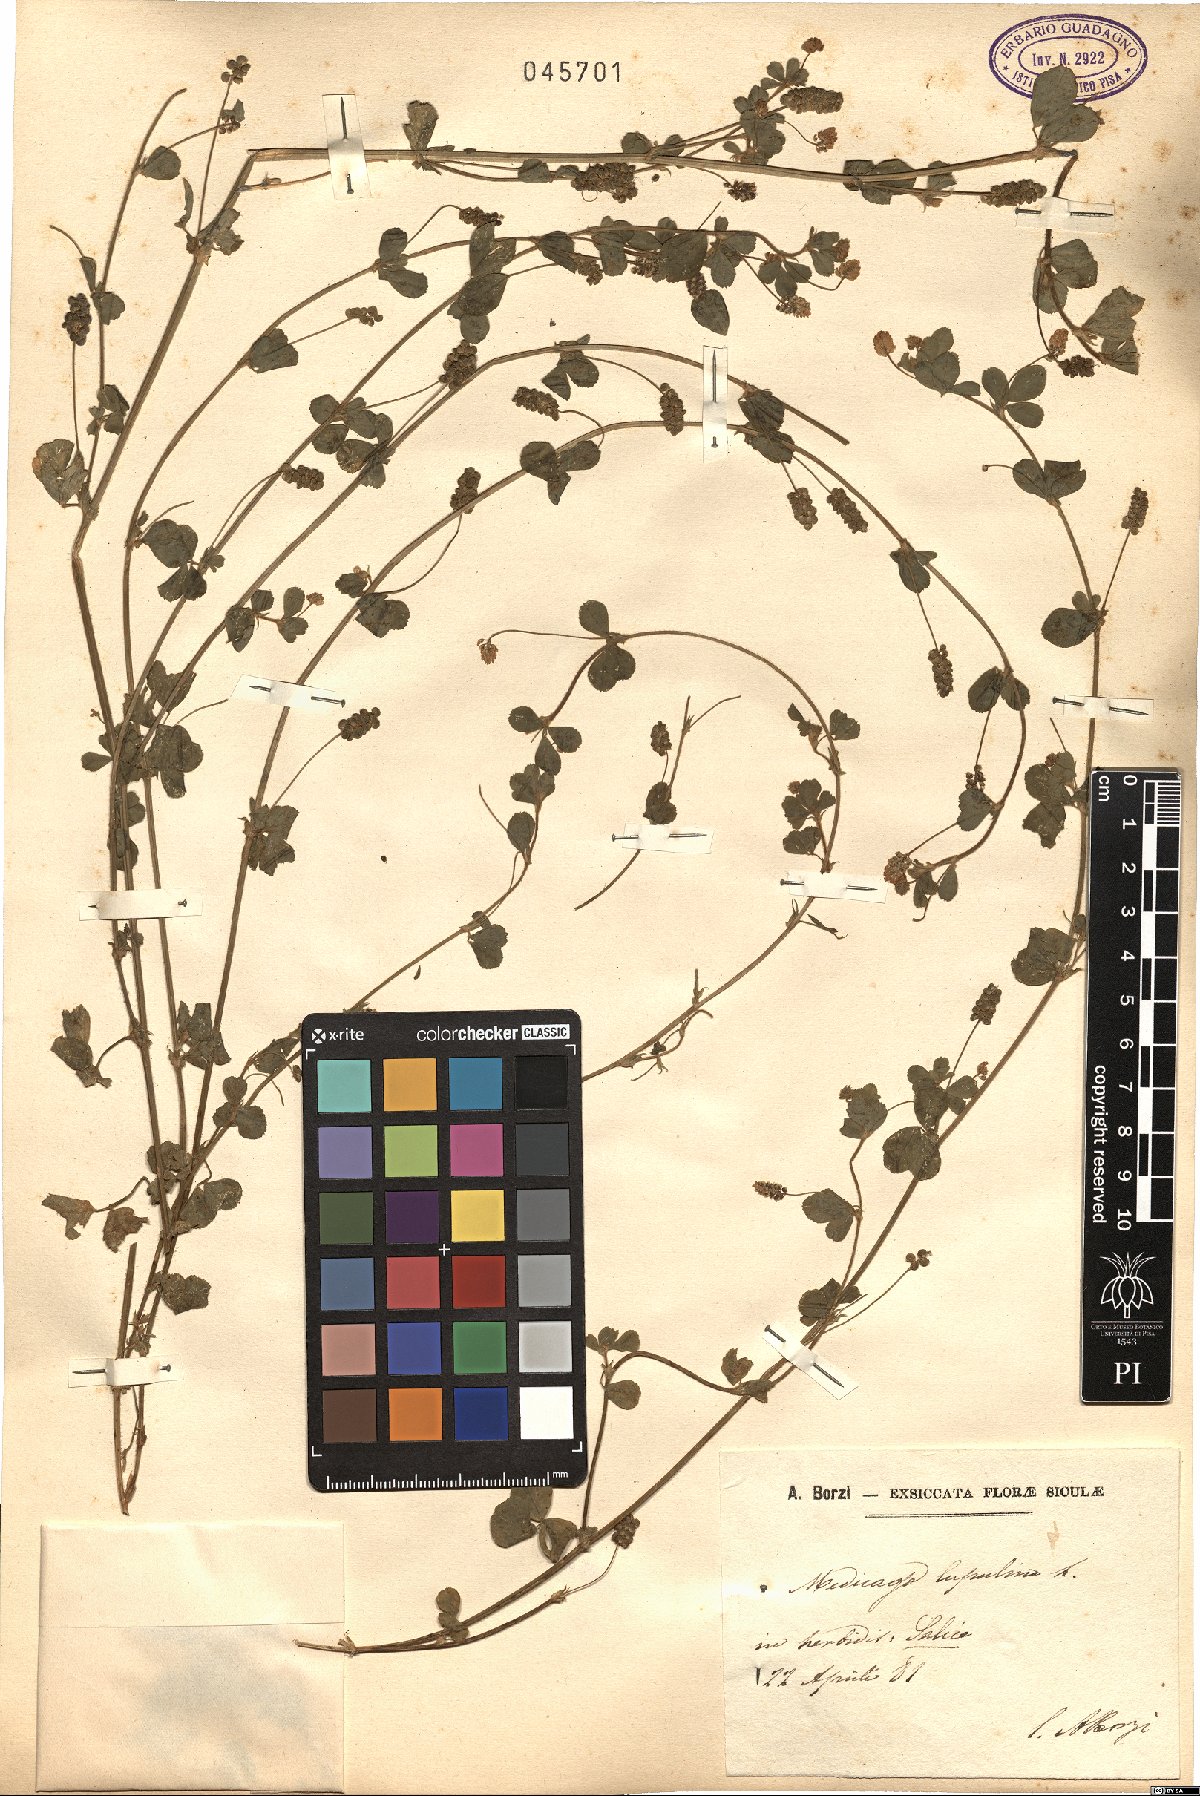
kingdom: Plantae
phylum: Tracheophyta
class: Magnoliopsida
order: Fabales
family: Fabaceae
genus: Medicago
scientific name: Medicago lupulina
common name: Black medick
